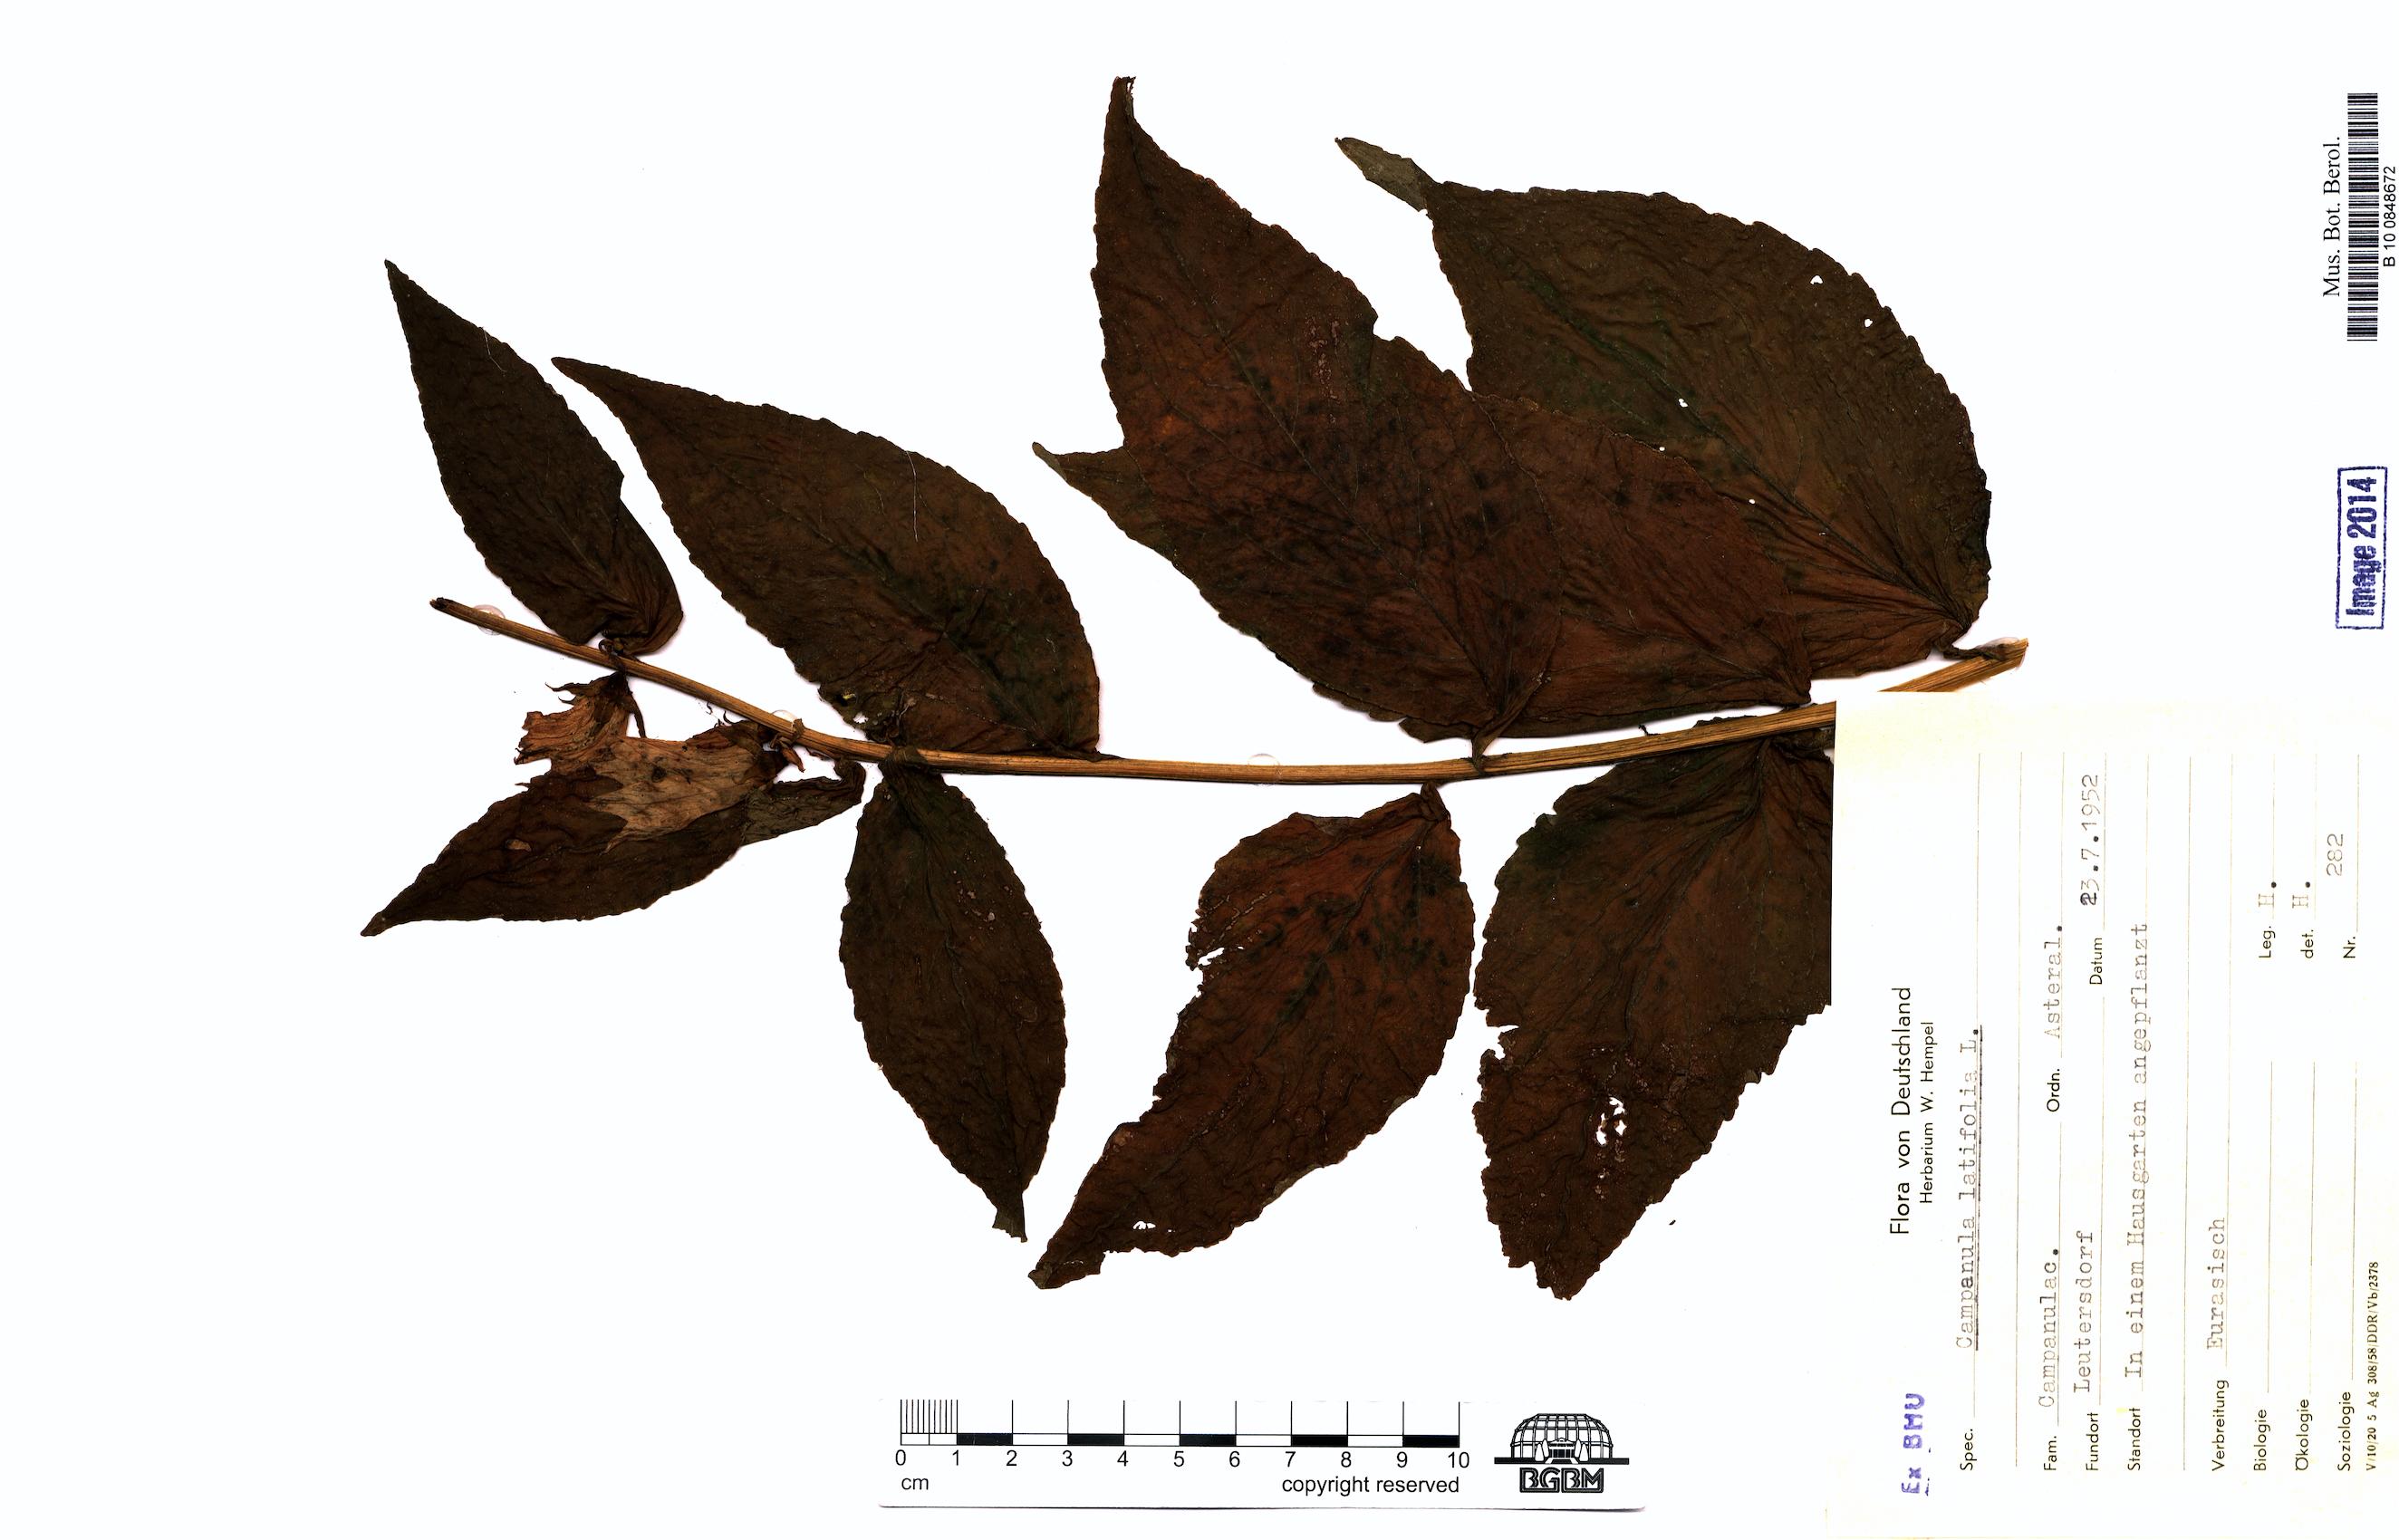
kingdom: Plantae
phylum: Tracheophyta
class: Magnoliopsida
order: Asterales
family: Campanulaceae
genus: Campanula
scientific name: Campanula latifolia
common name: Giant bellflower
